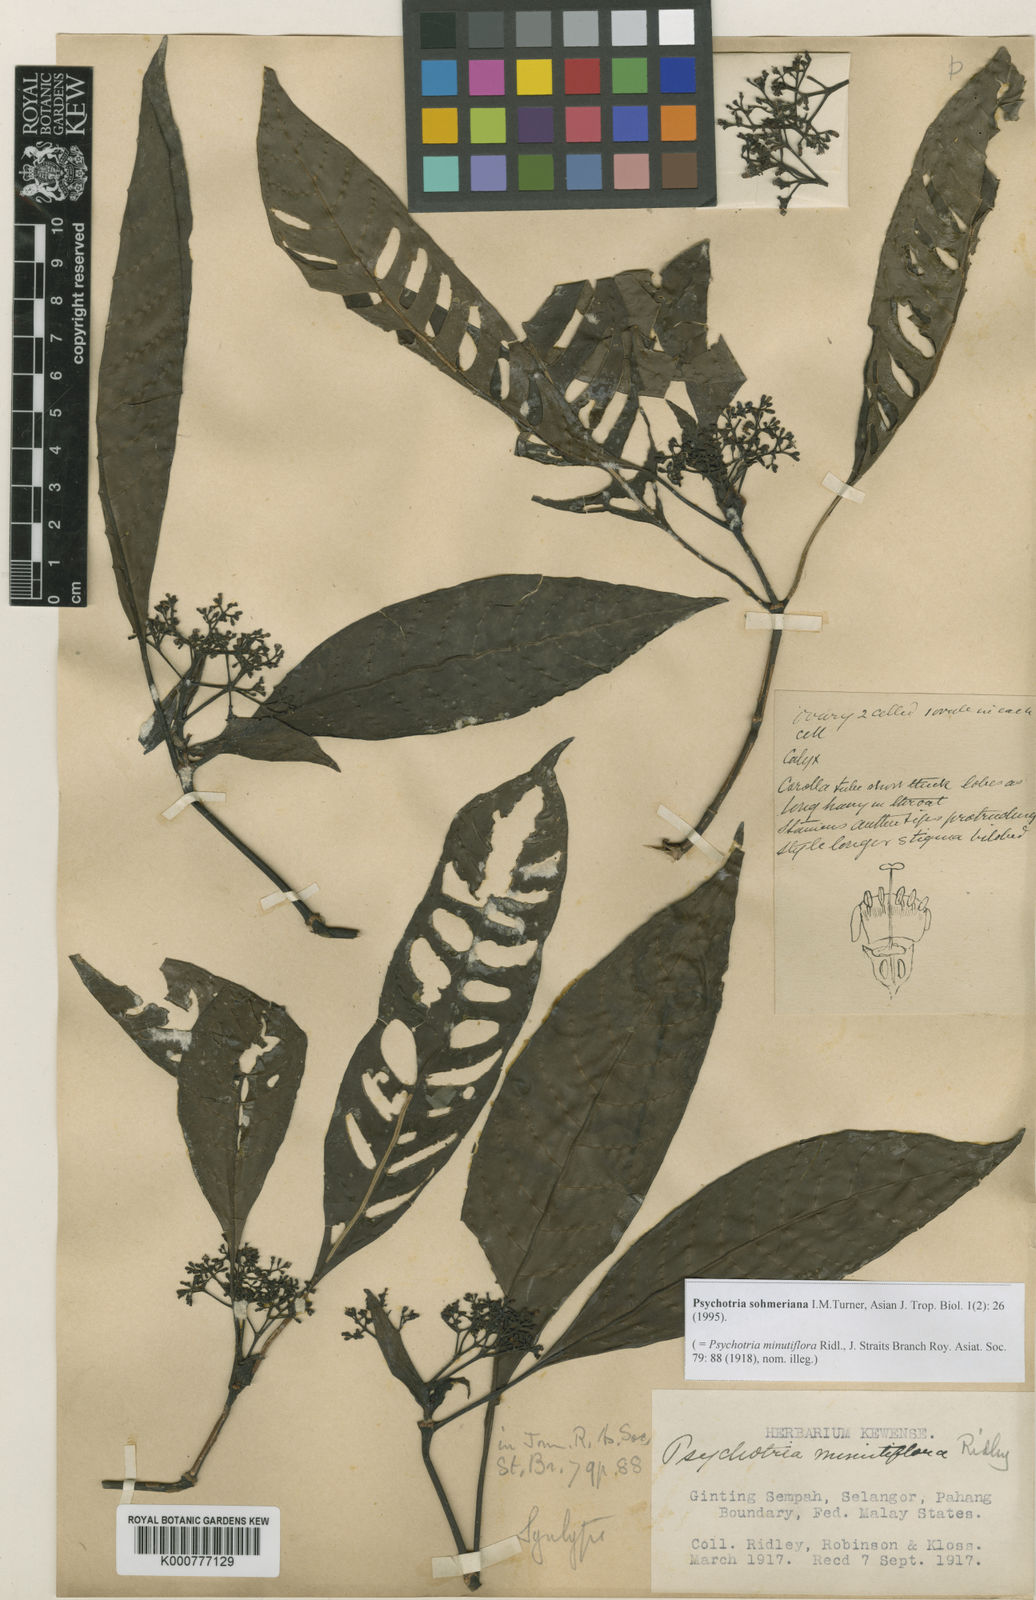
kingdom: Plantae
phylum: Tracheophyta
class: Magnoliopsida
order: Gentianales
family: Rubiaceae
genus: Psychotria
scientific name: Psychotria sohmeriana
